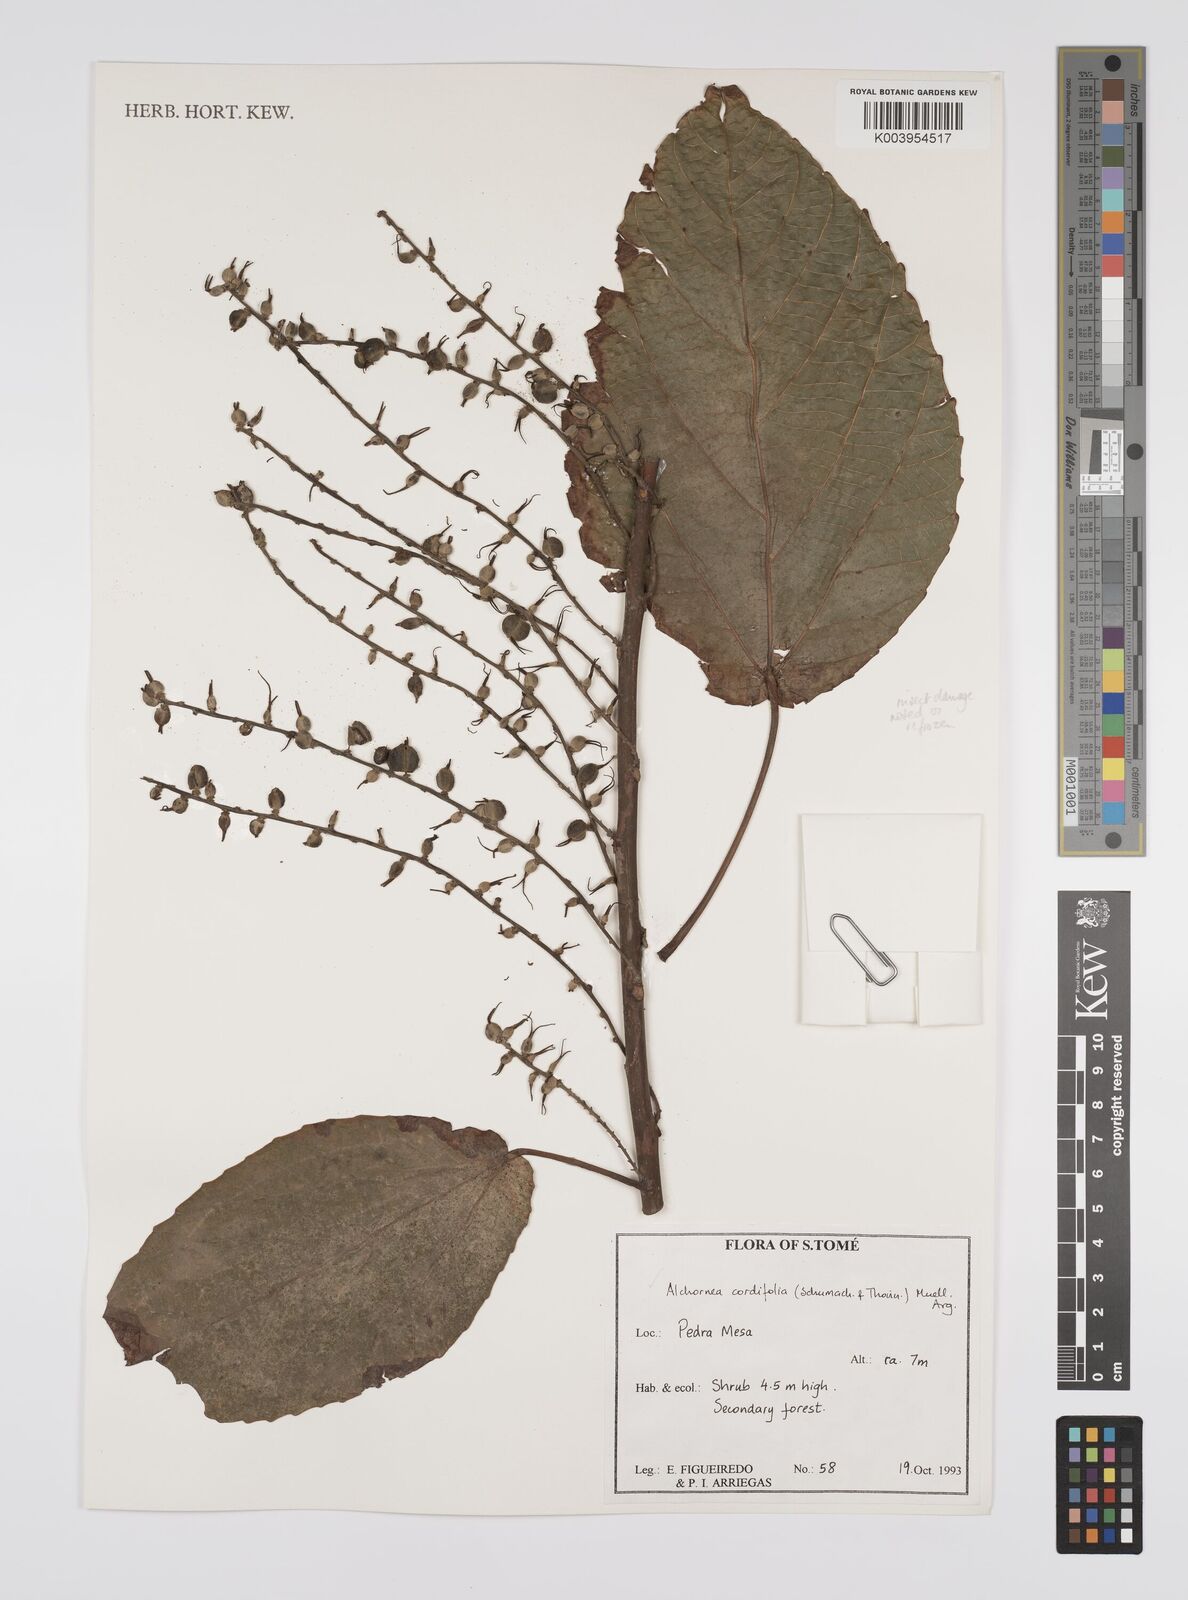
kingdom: Plantae
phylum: Tracheophyta
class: Magnoliopsida
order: Malpighiales
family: Euphorbiaceae
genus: Alchornea
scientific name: Alchornea cordifolia
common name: Christmasbush
